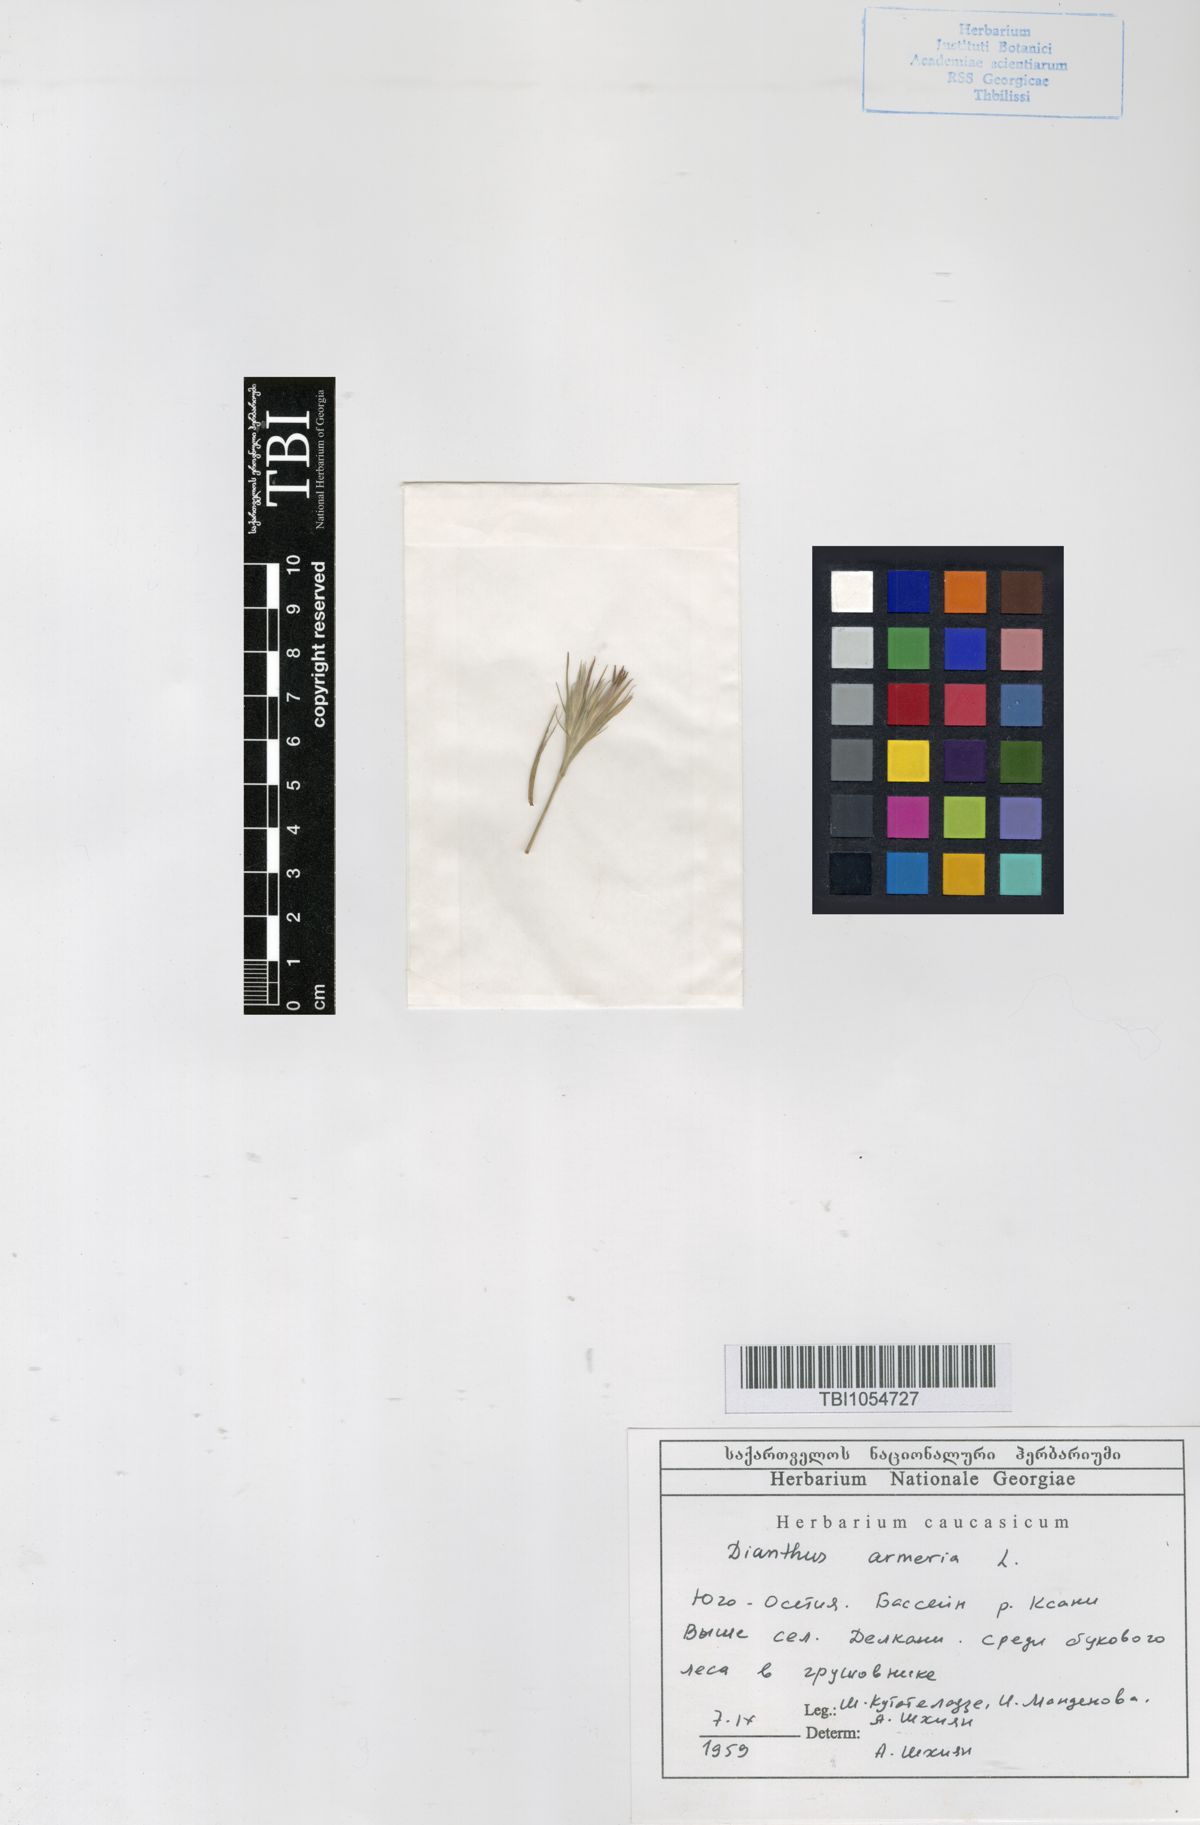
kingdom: Plantae
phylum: Tracheophyta
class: Magnoliopsida
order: Caryophyllales
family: Caryophyllaceae
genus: Dianthus
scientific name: Dianthus armeria
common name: Deptford pink
